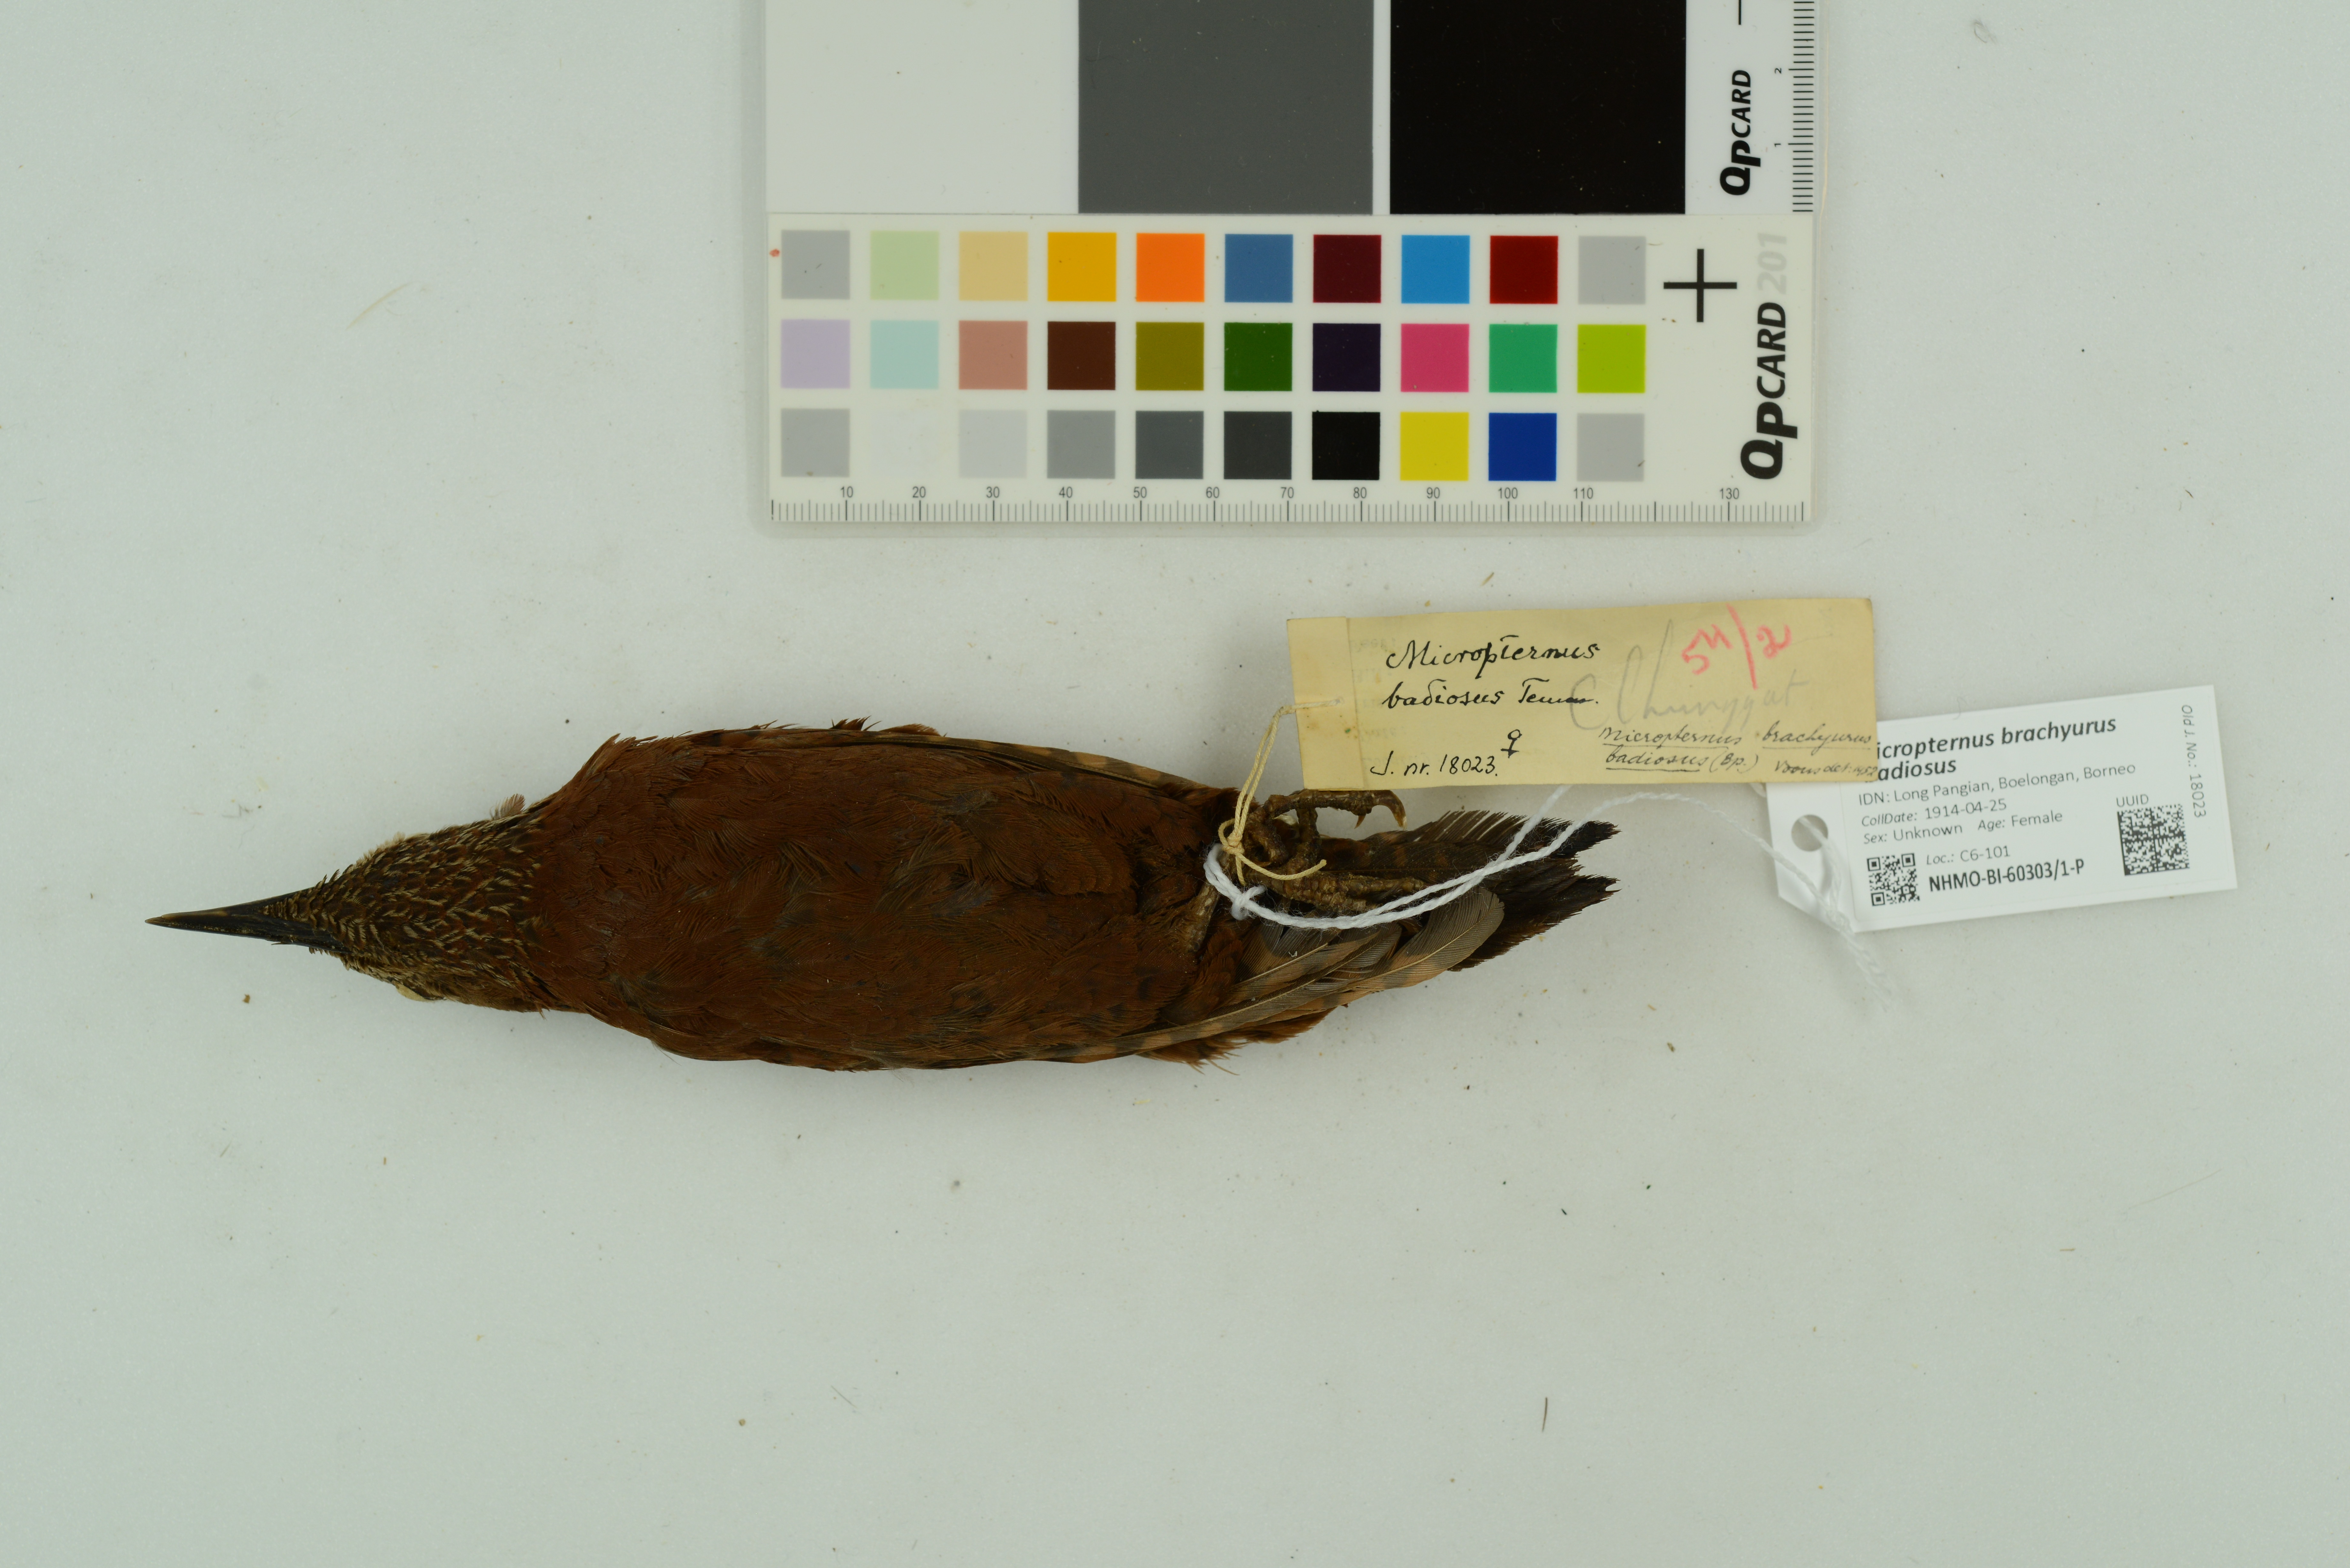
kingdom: Animalia
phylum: Chordata
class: Aves
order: Piciformes
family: Picidae
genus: Micropternus
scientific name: Micropternus brachyurus
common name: Rufous woodpecker
